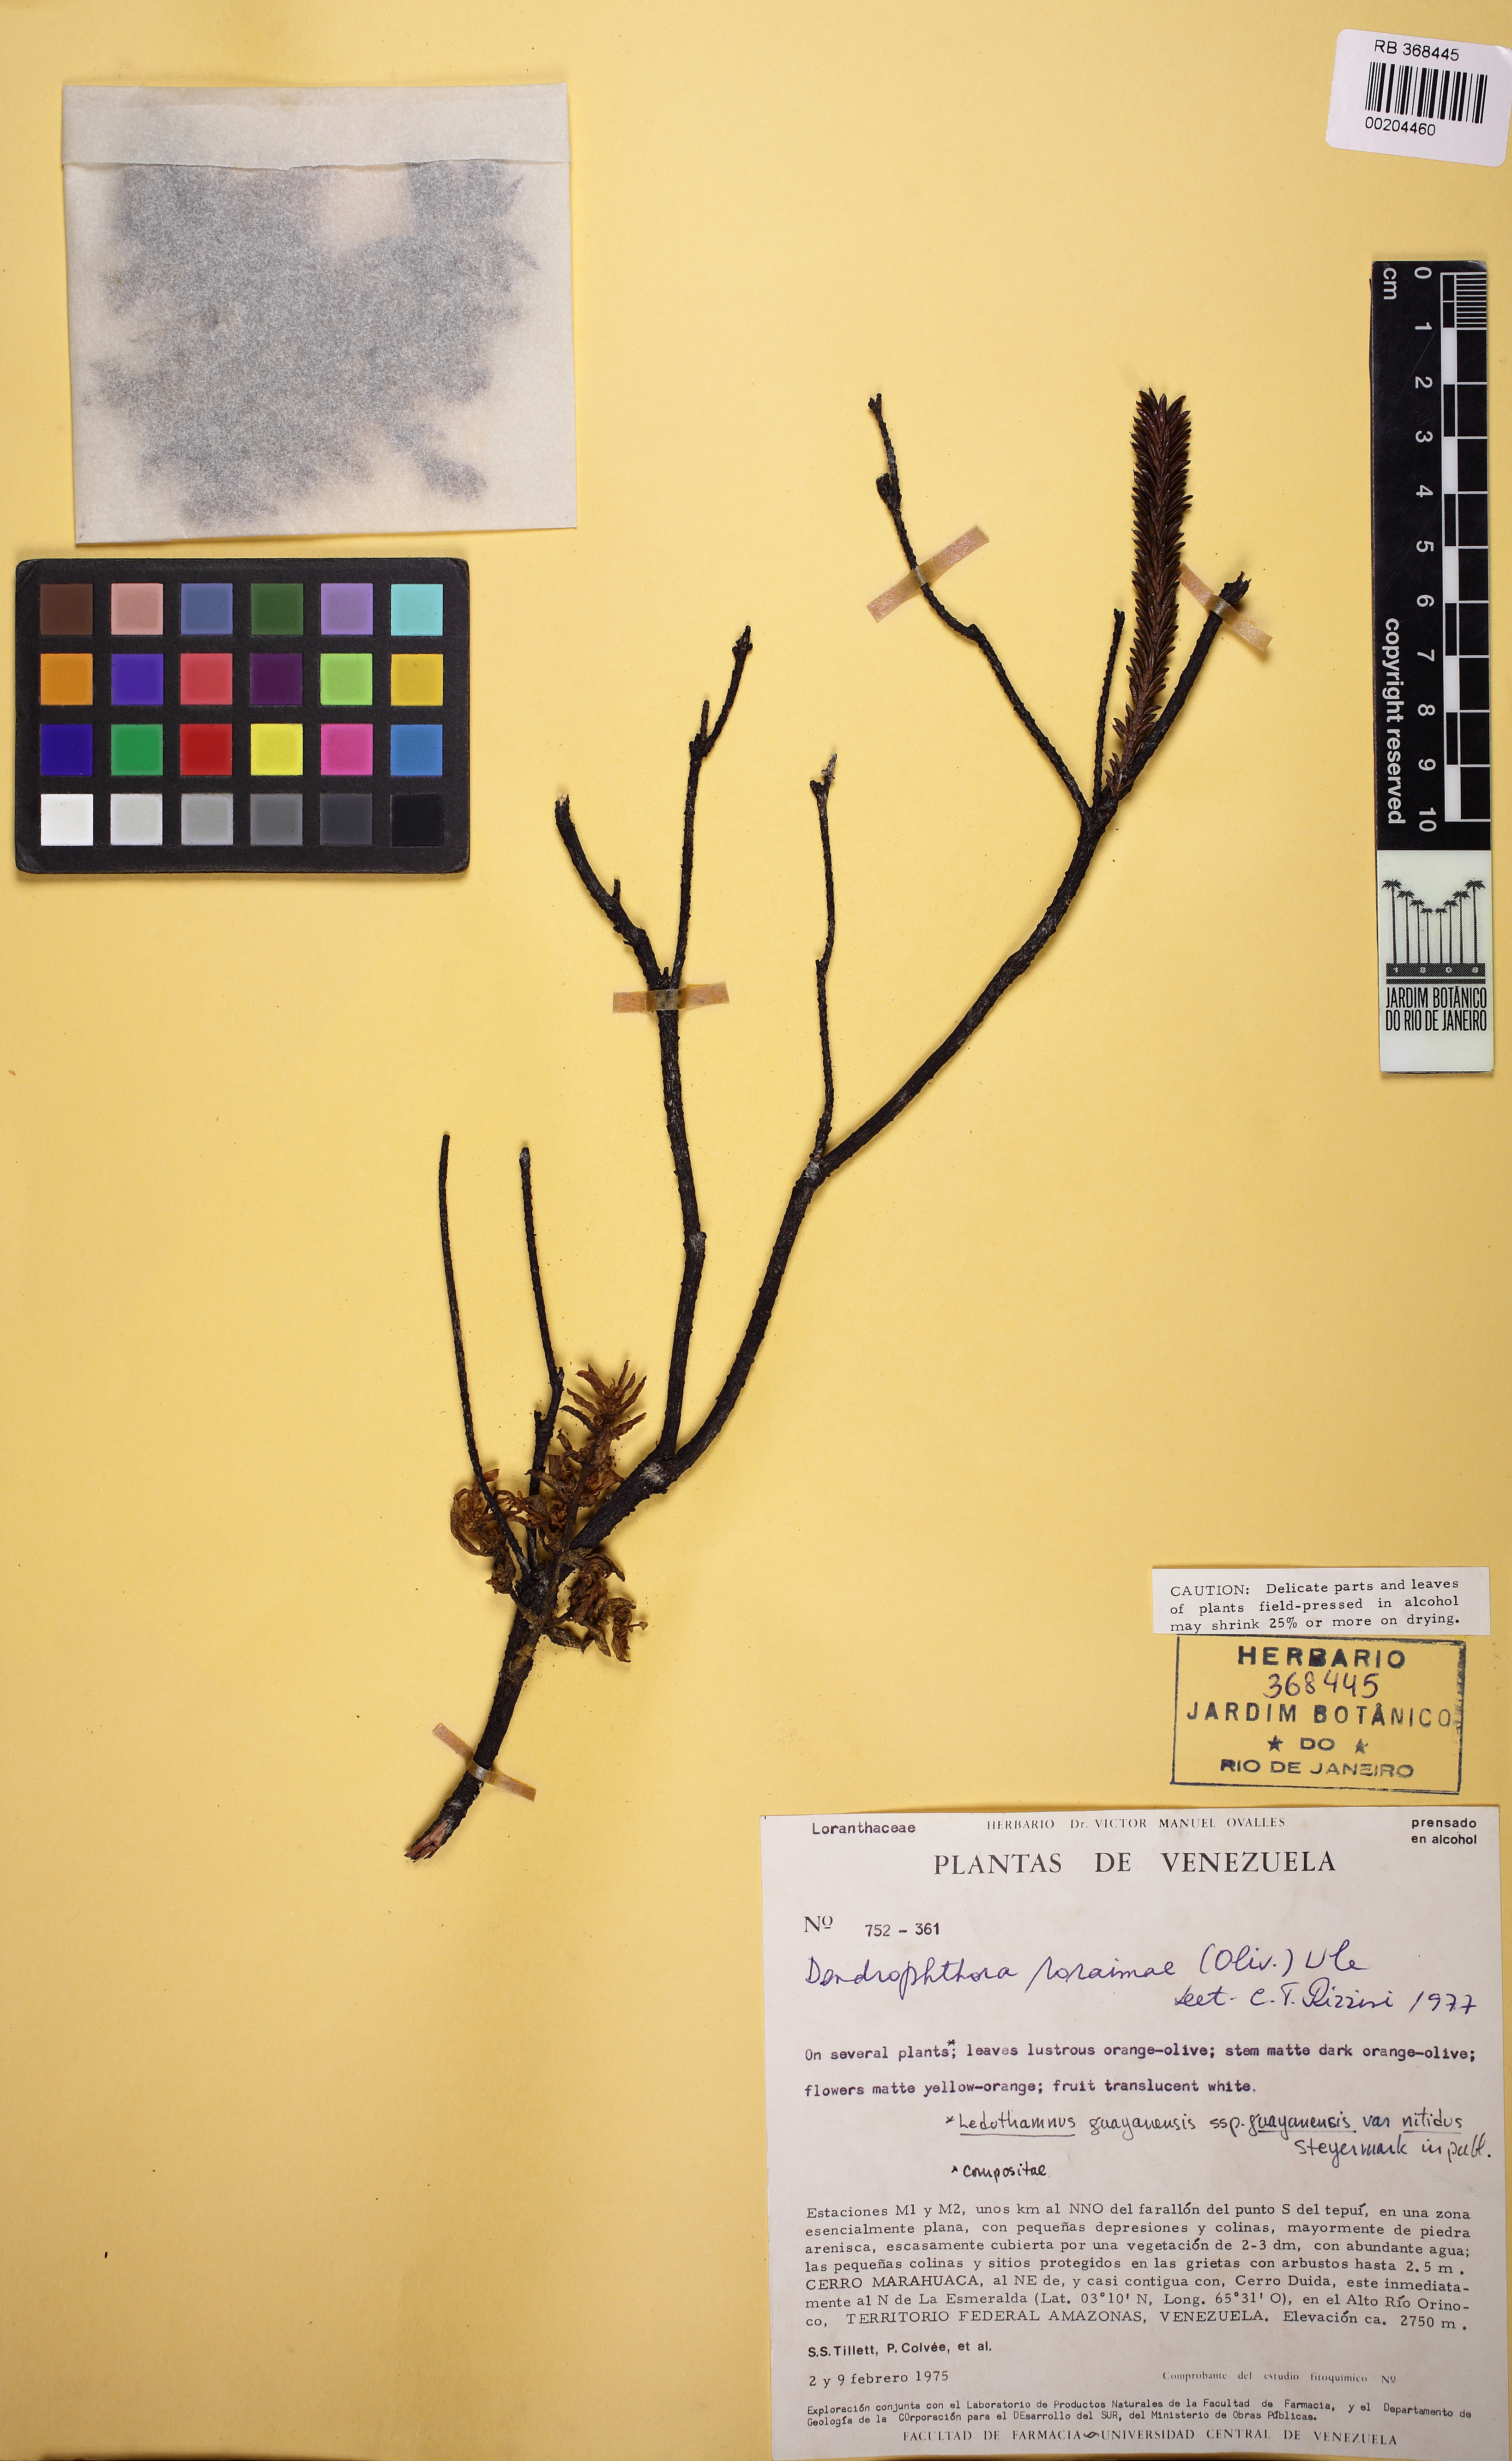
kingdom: Plantae
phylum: Tracheophyta
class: Magnoliopsida
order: Santalales
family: Viscaceae
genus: Dendrophthora
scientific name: Dendrophthora roraimae
